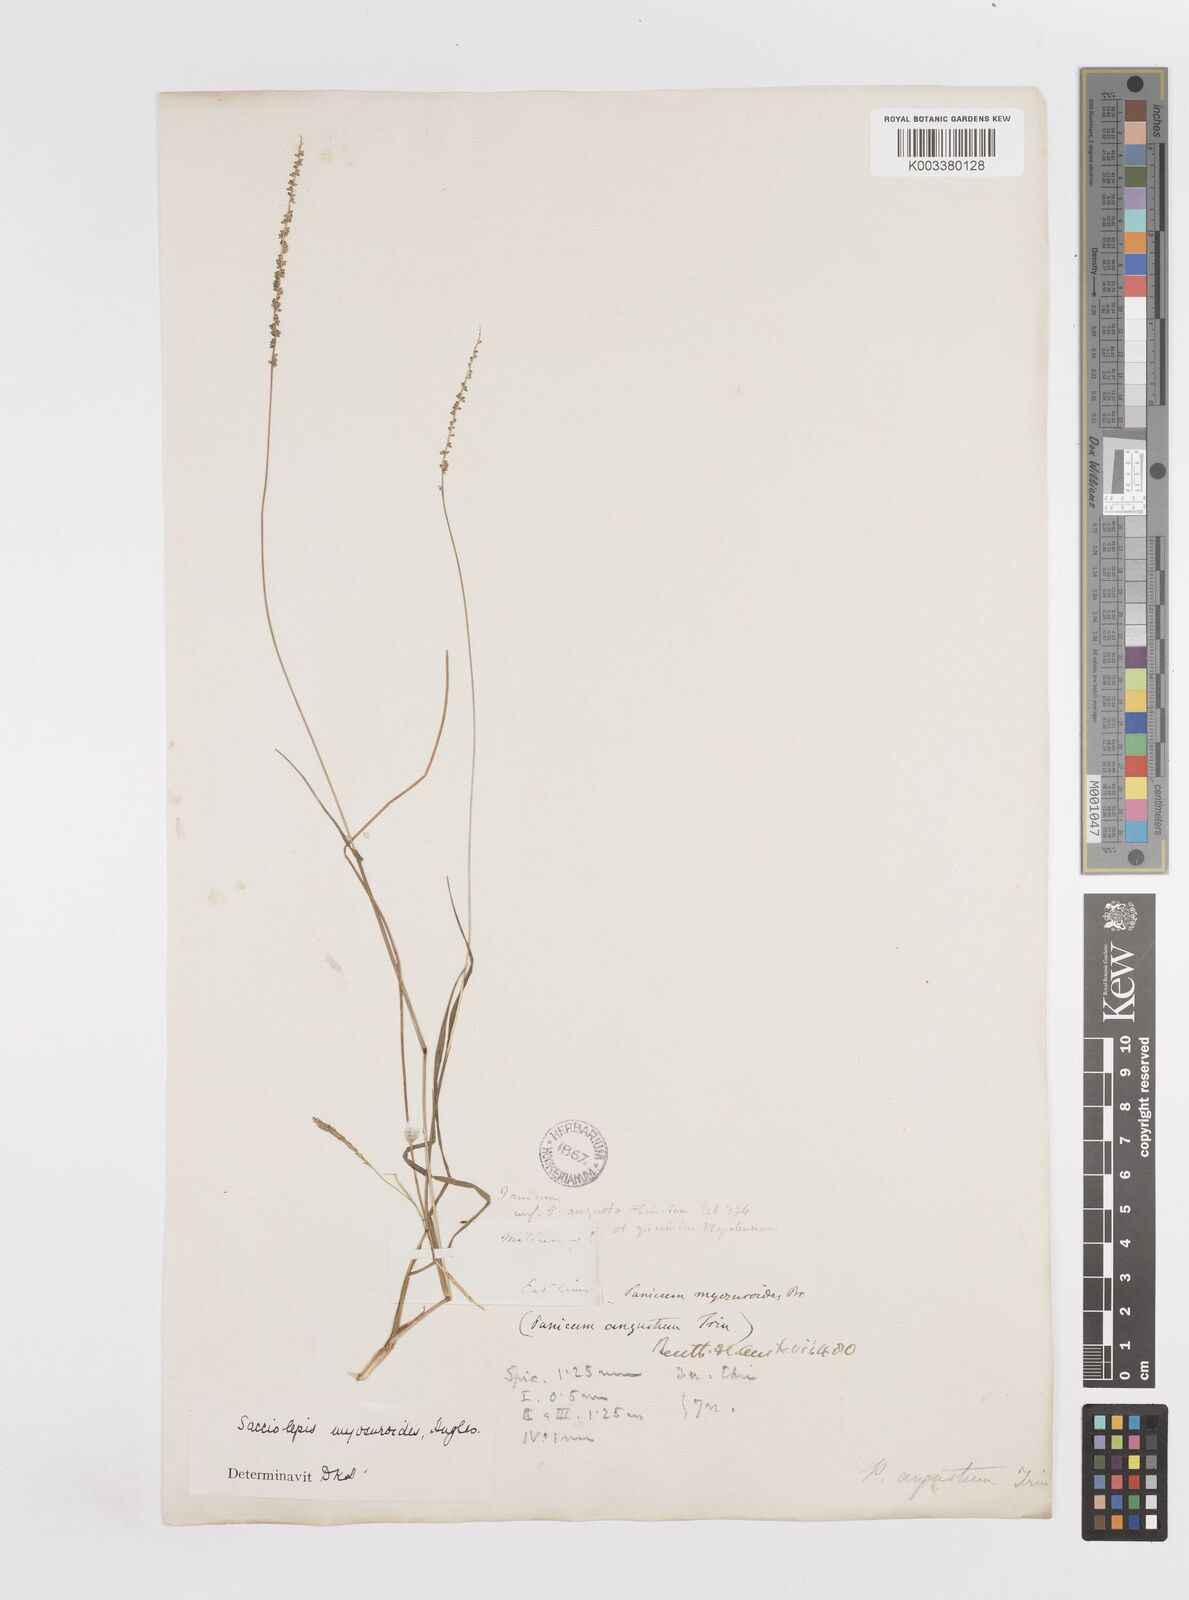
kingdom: Plantae
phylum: Tracheophyta
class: Liliopsida
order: Poales
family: Poaceae
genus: Sacciolepis
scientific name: Sacciolepis myosuroides
